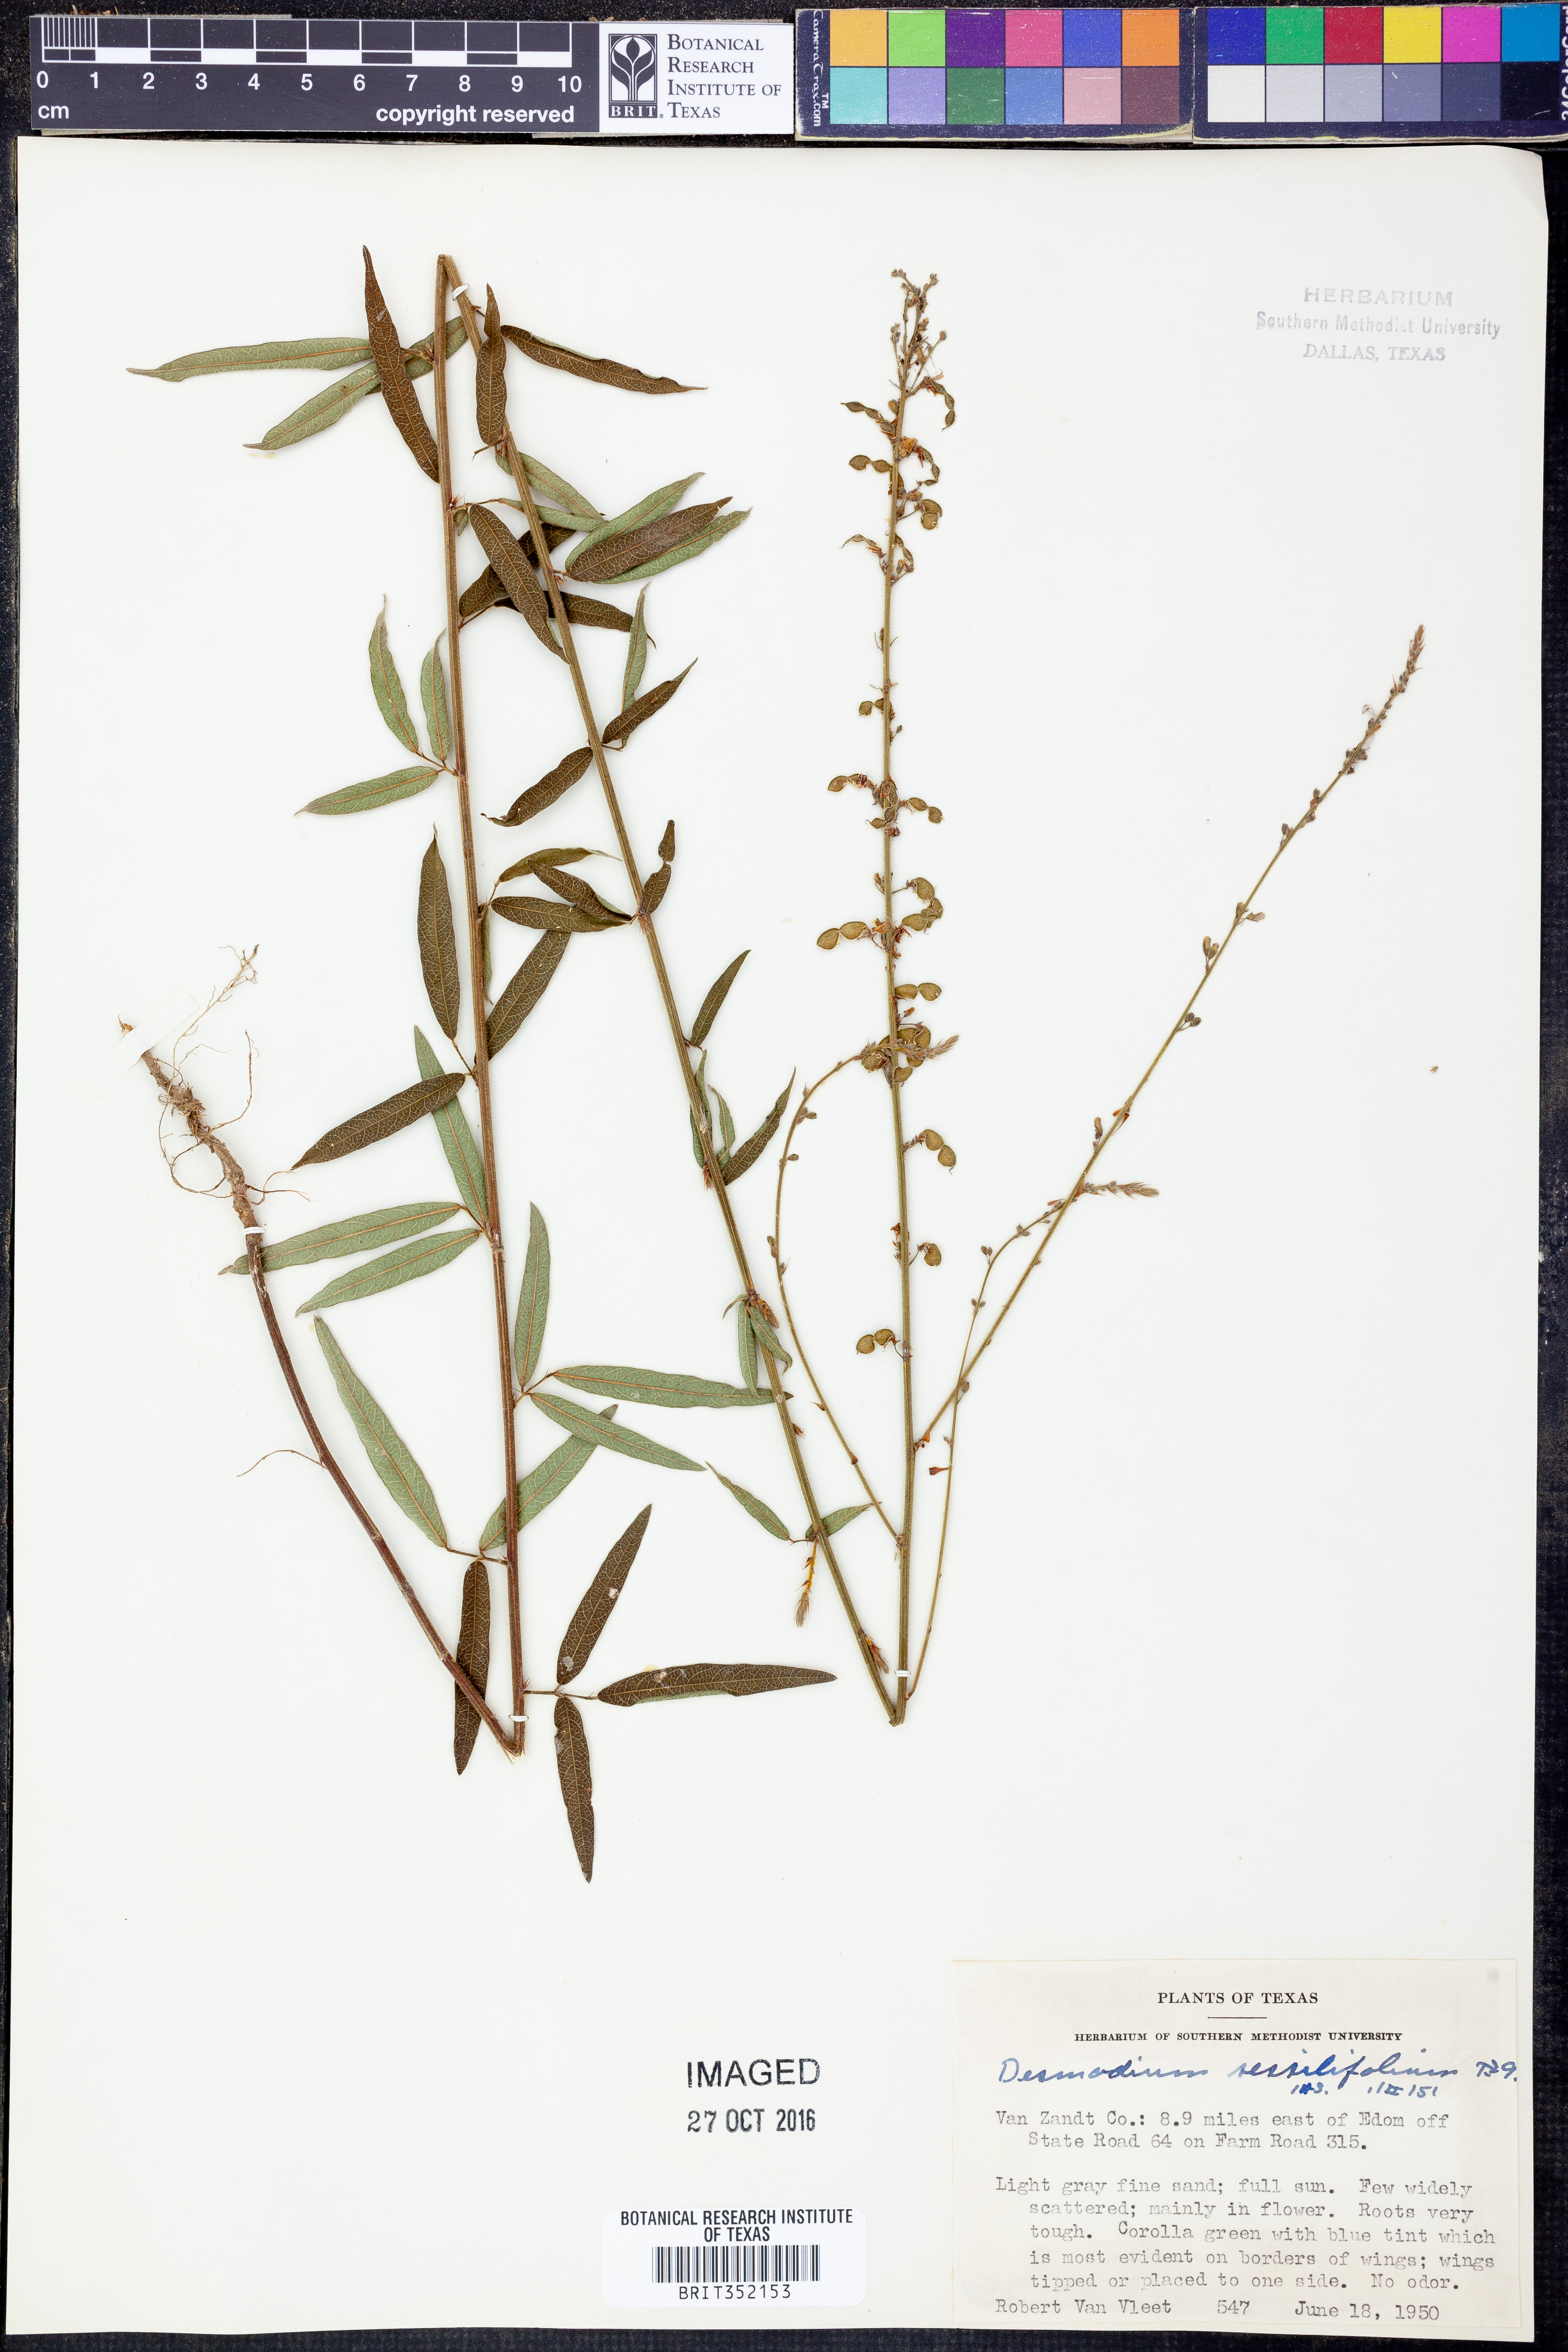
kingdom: Plantae
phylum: Tracheophyta
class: Magnoliopsida
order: Fabales
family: Fabaceae
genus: Desmodium
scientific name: Desmodium sessilifolium
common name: Sessile tick-clover
